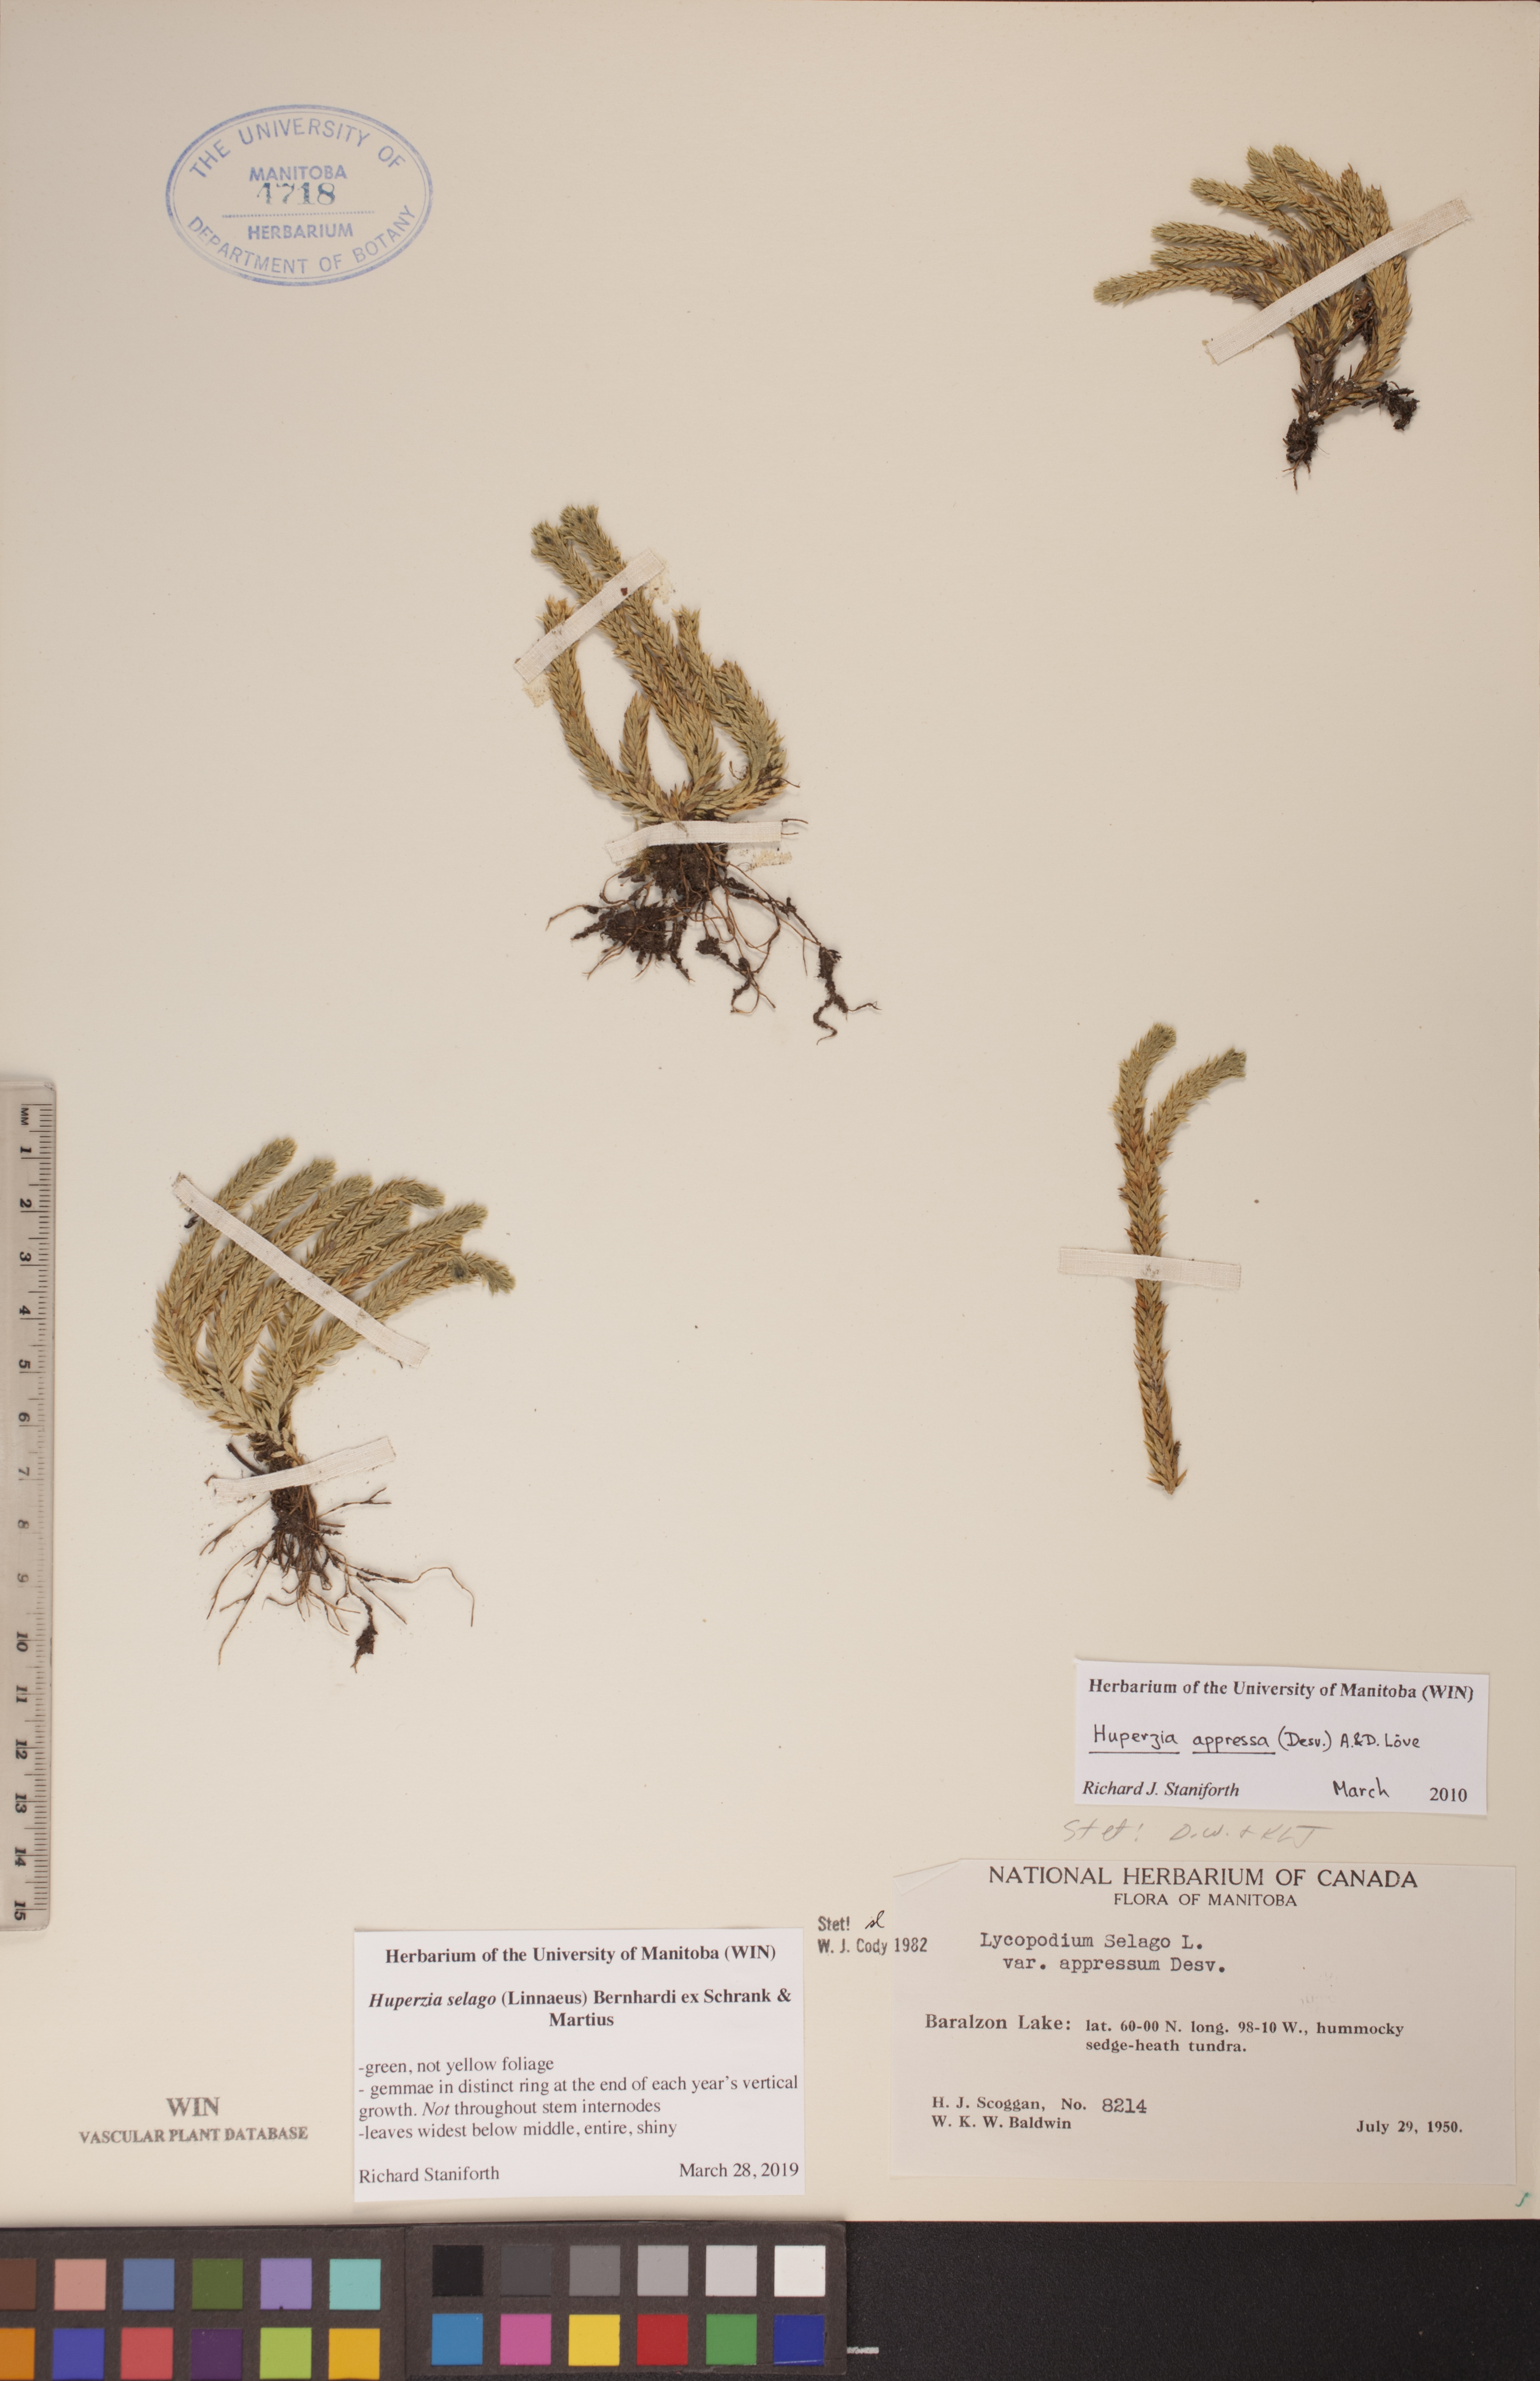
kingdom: Plantae
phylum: Tracheophyta
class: Lycopodiopsida
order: Lycopodiales
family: Lycopodiaceae
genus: Huperzia
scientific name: Huperzia selago
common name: Northern firmoss
